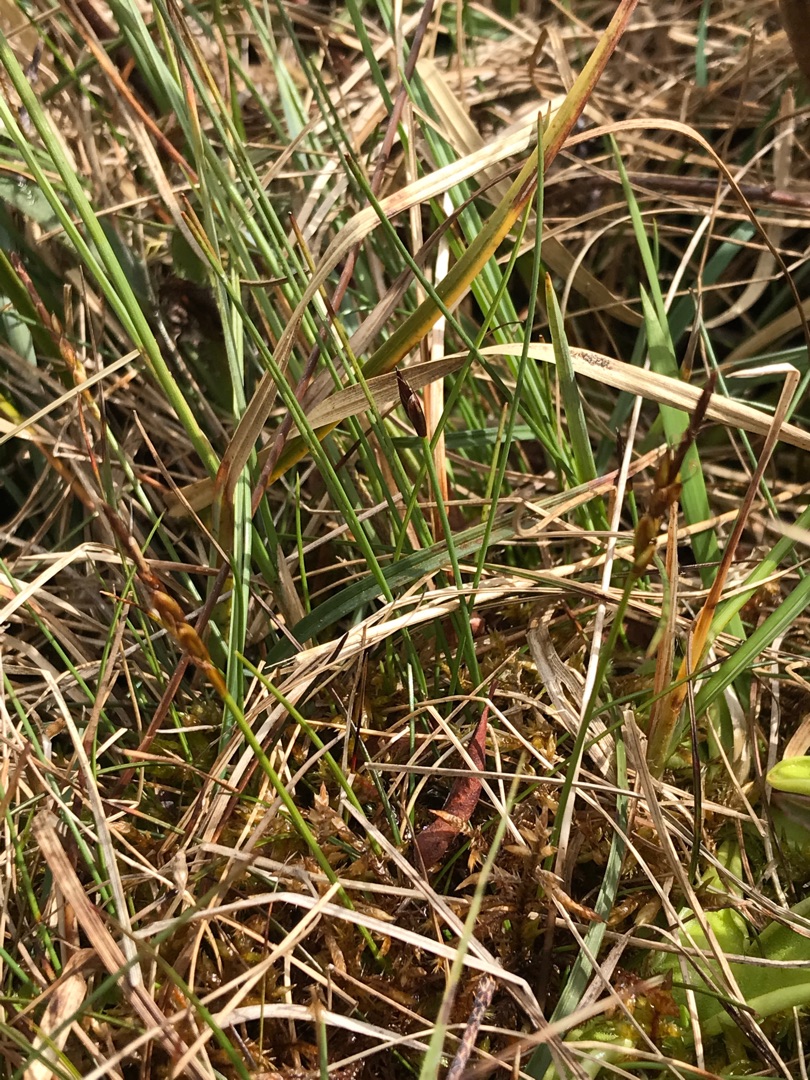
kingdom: Plantae
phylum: Tracheophyta
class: Liliopsida
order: Poales
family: Cyperaceae
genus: Carex
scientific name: Carex pulicaris
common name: Loppe-star
